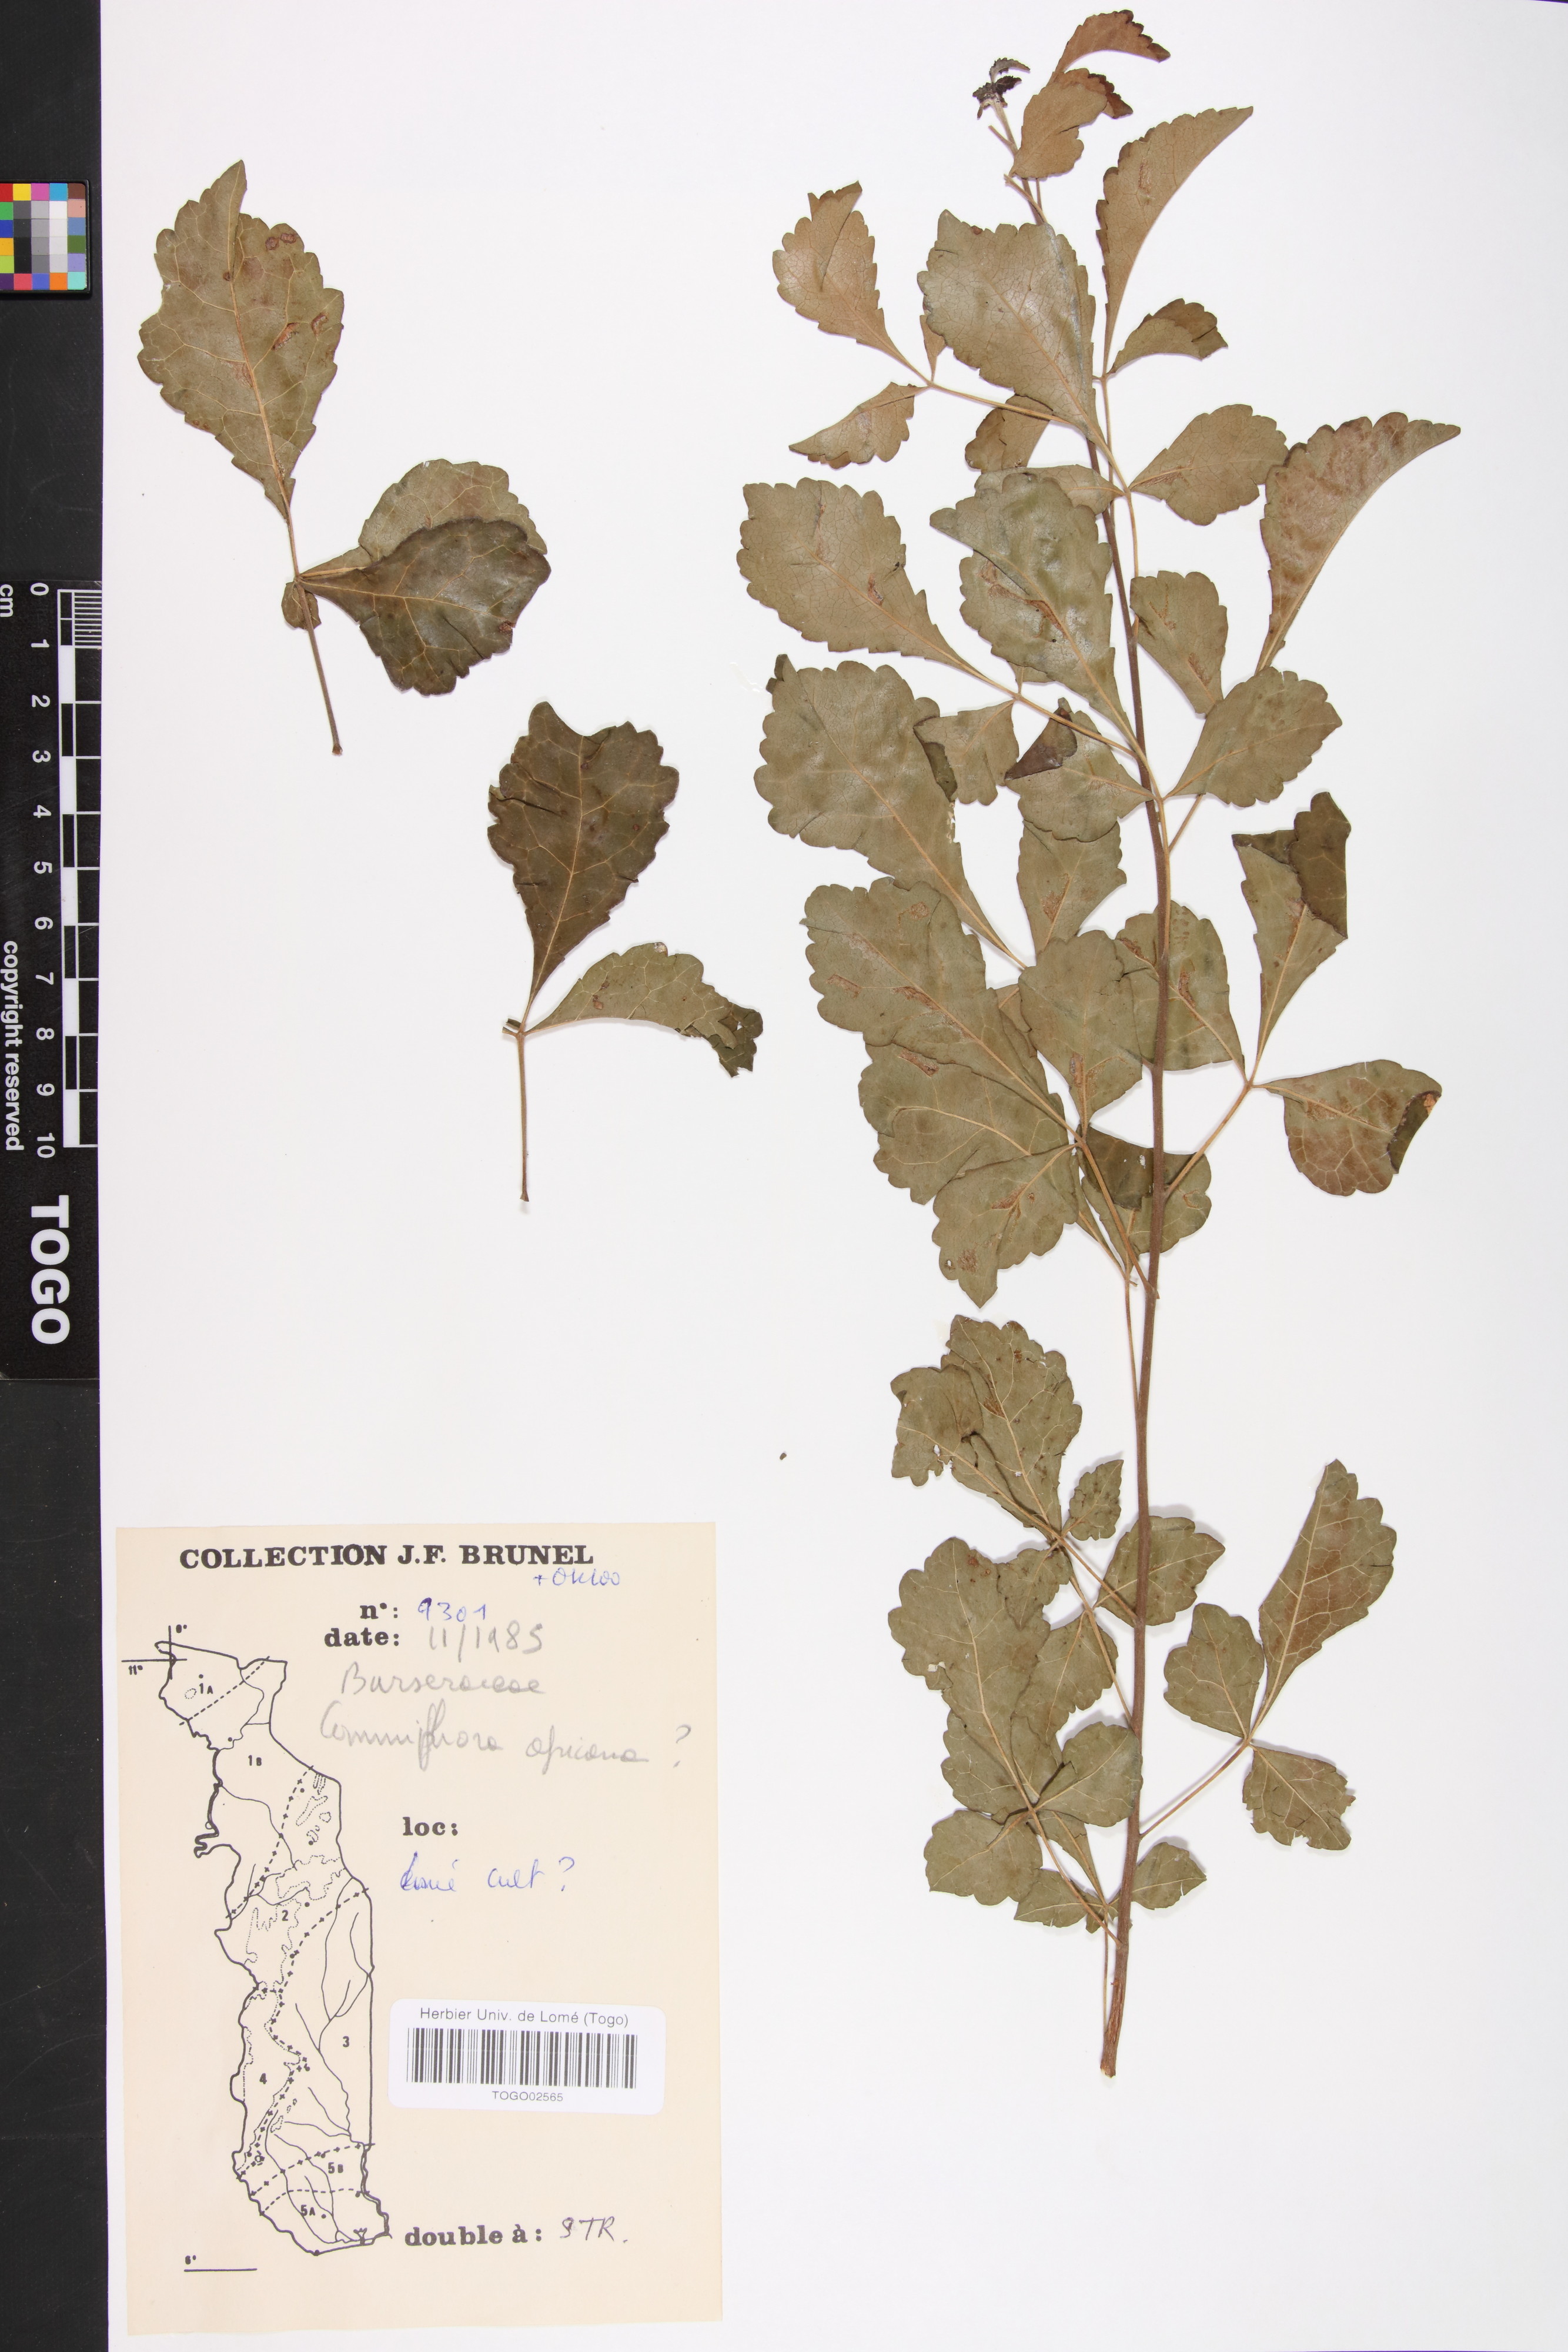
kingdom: Plantae
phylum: Tracheophyta
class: Magnoliopsida
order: Sapindales
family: Burseraceae
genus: Commiphora
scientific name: Commiphora africana
